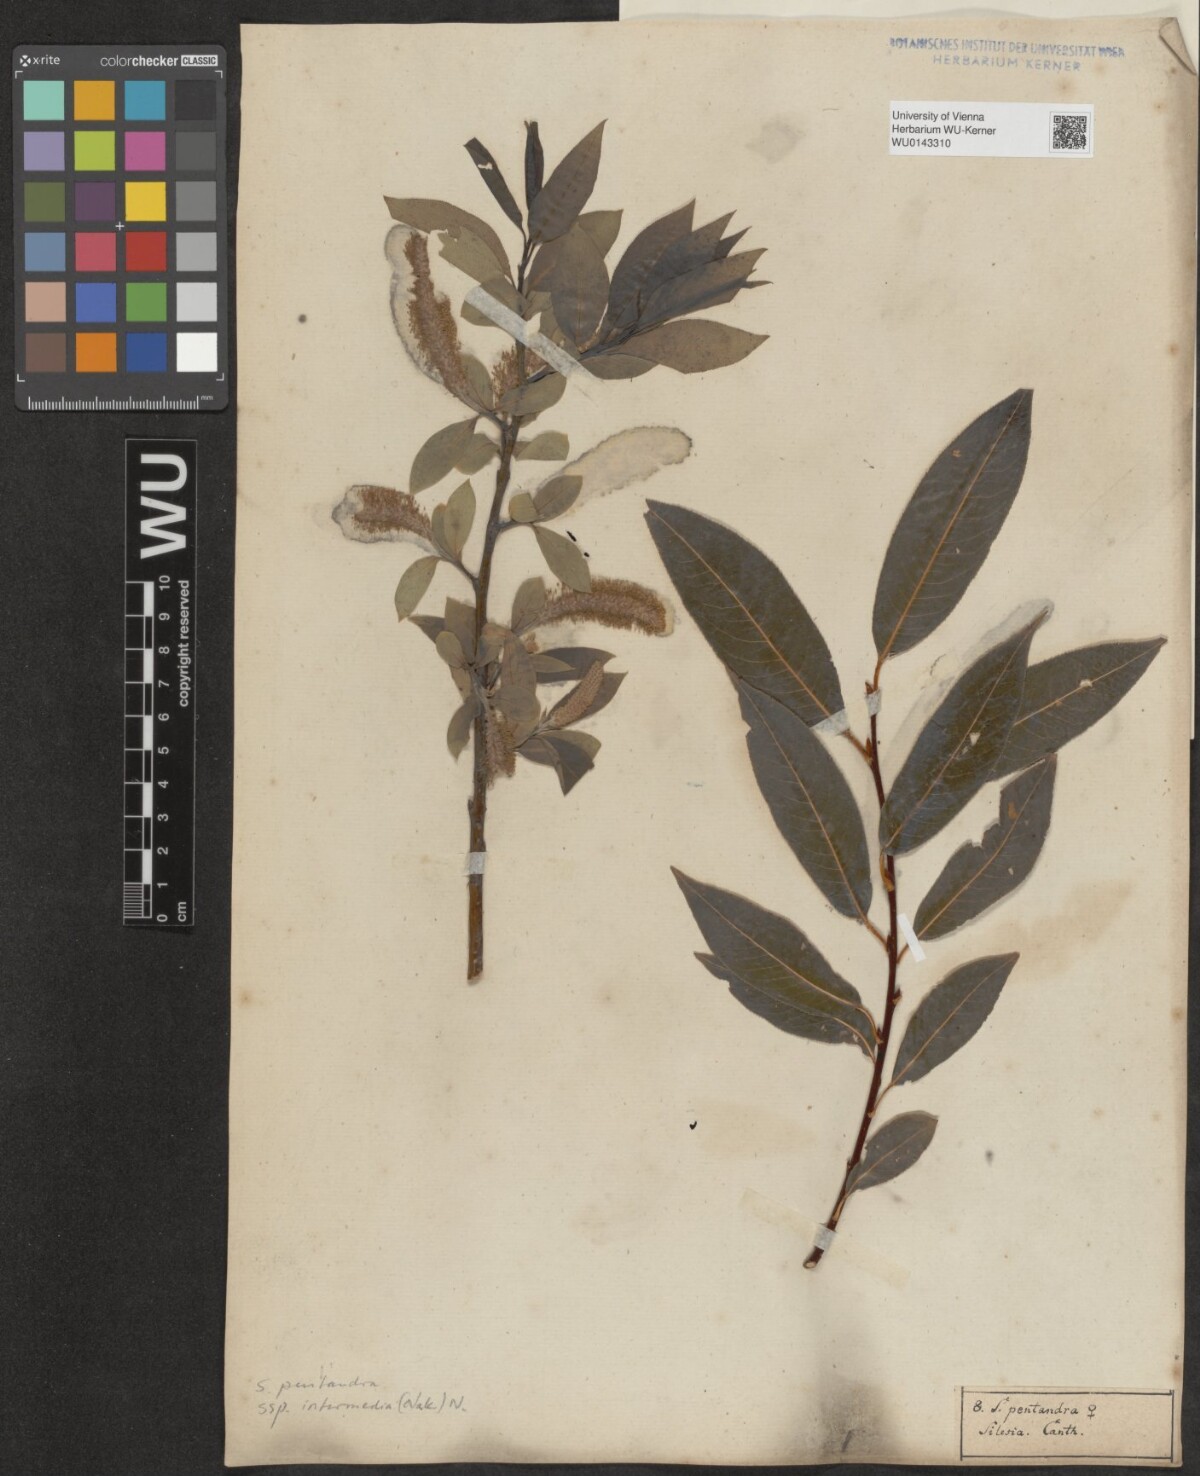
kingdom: Plantae
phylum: Tracheophyta
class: Magnoliopsida
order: Malpighiales
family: Salicaceae
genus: Salix
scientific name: Salix pentandra
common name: Bay willow
